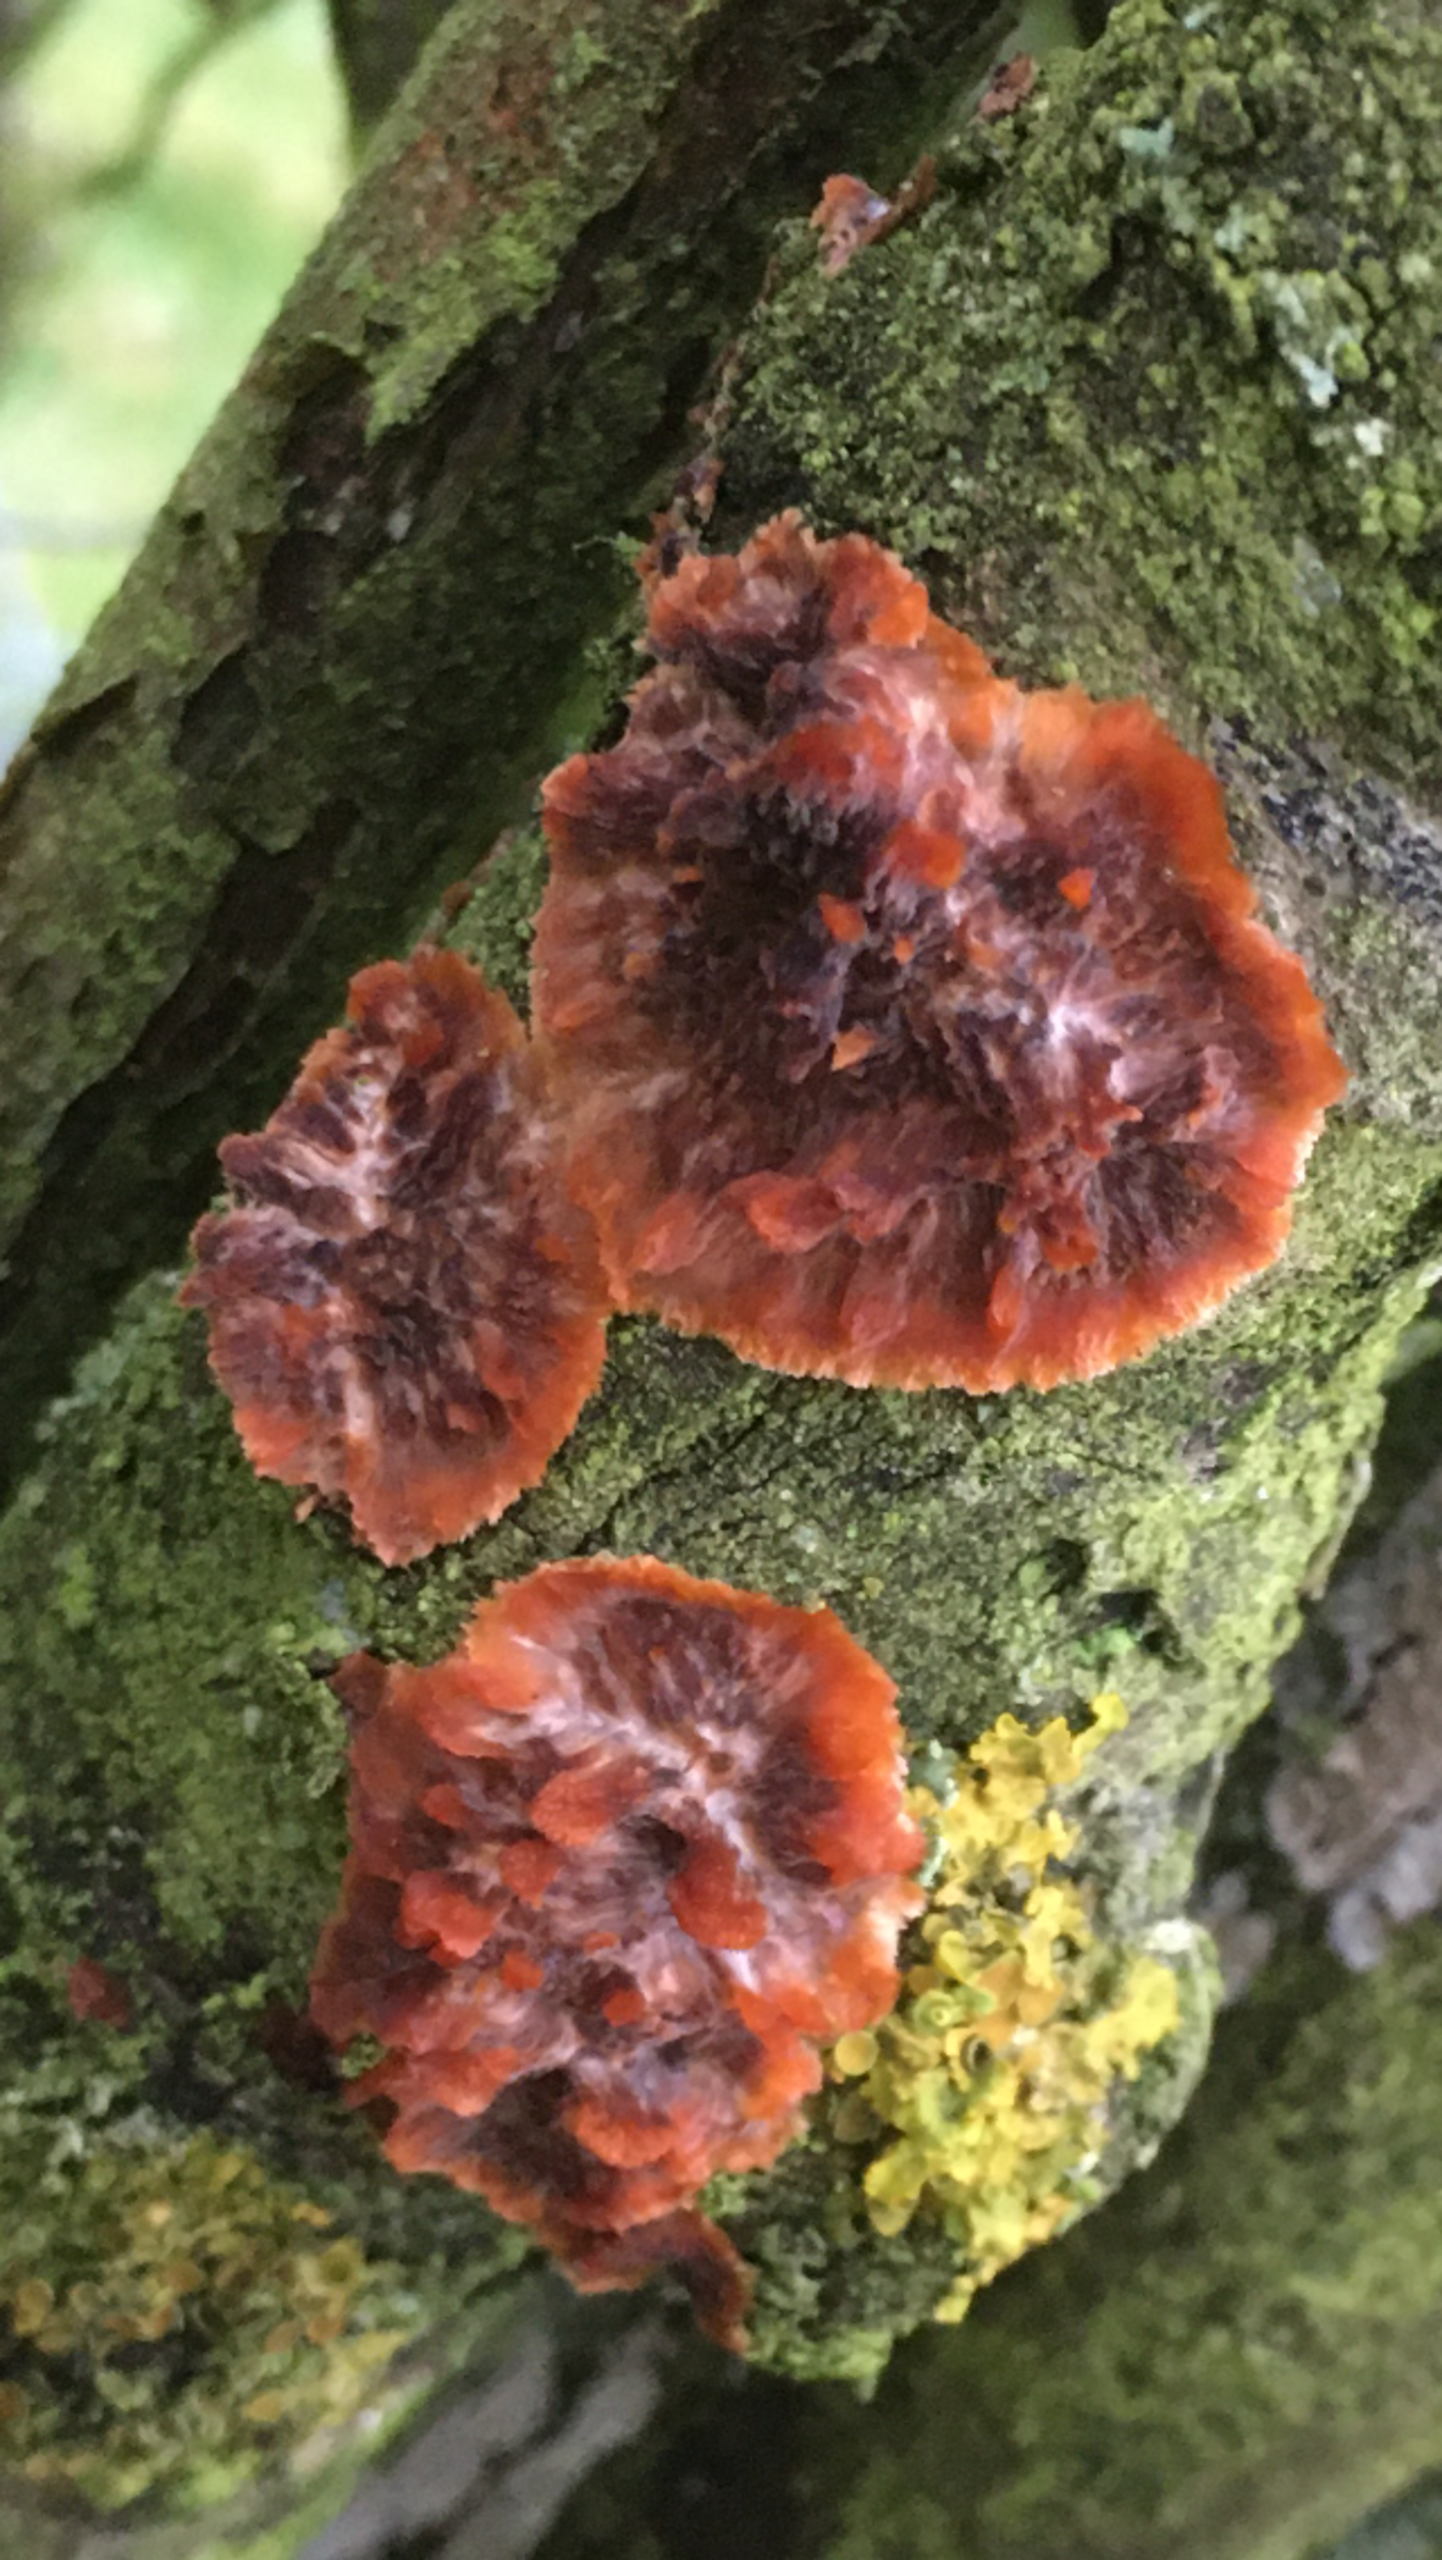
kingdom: Fungi
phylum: Basidiomycota
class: Agaricomycetes
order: Polyporales
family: Meruliaceae
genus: Phlebia
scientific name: Phlebia radiata
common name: Stråle-åresvamp
